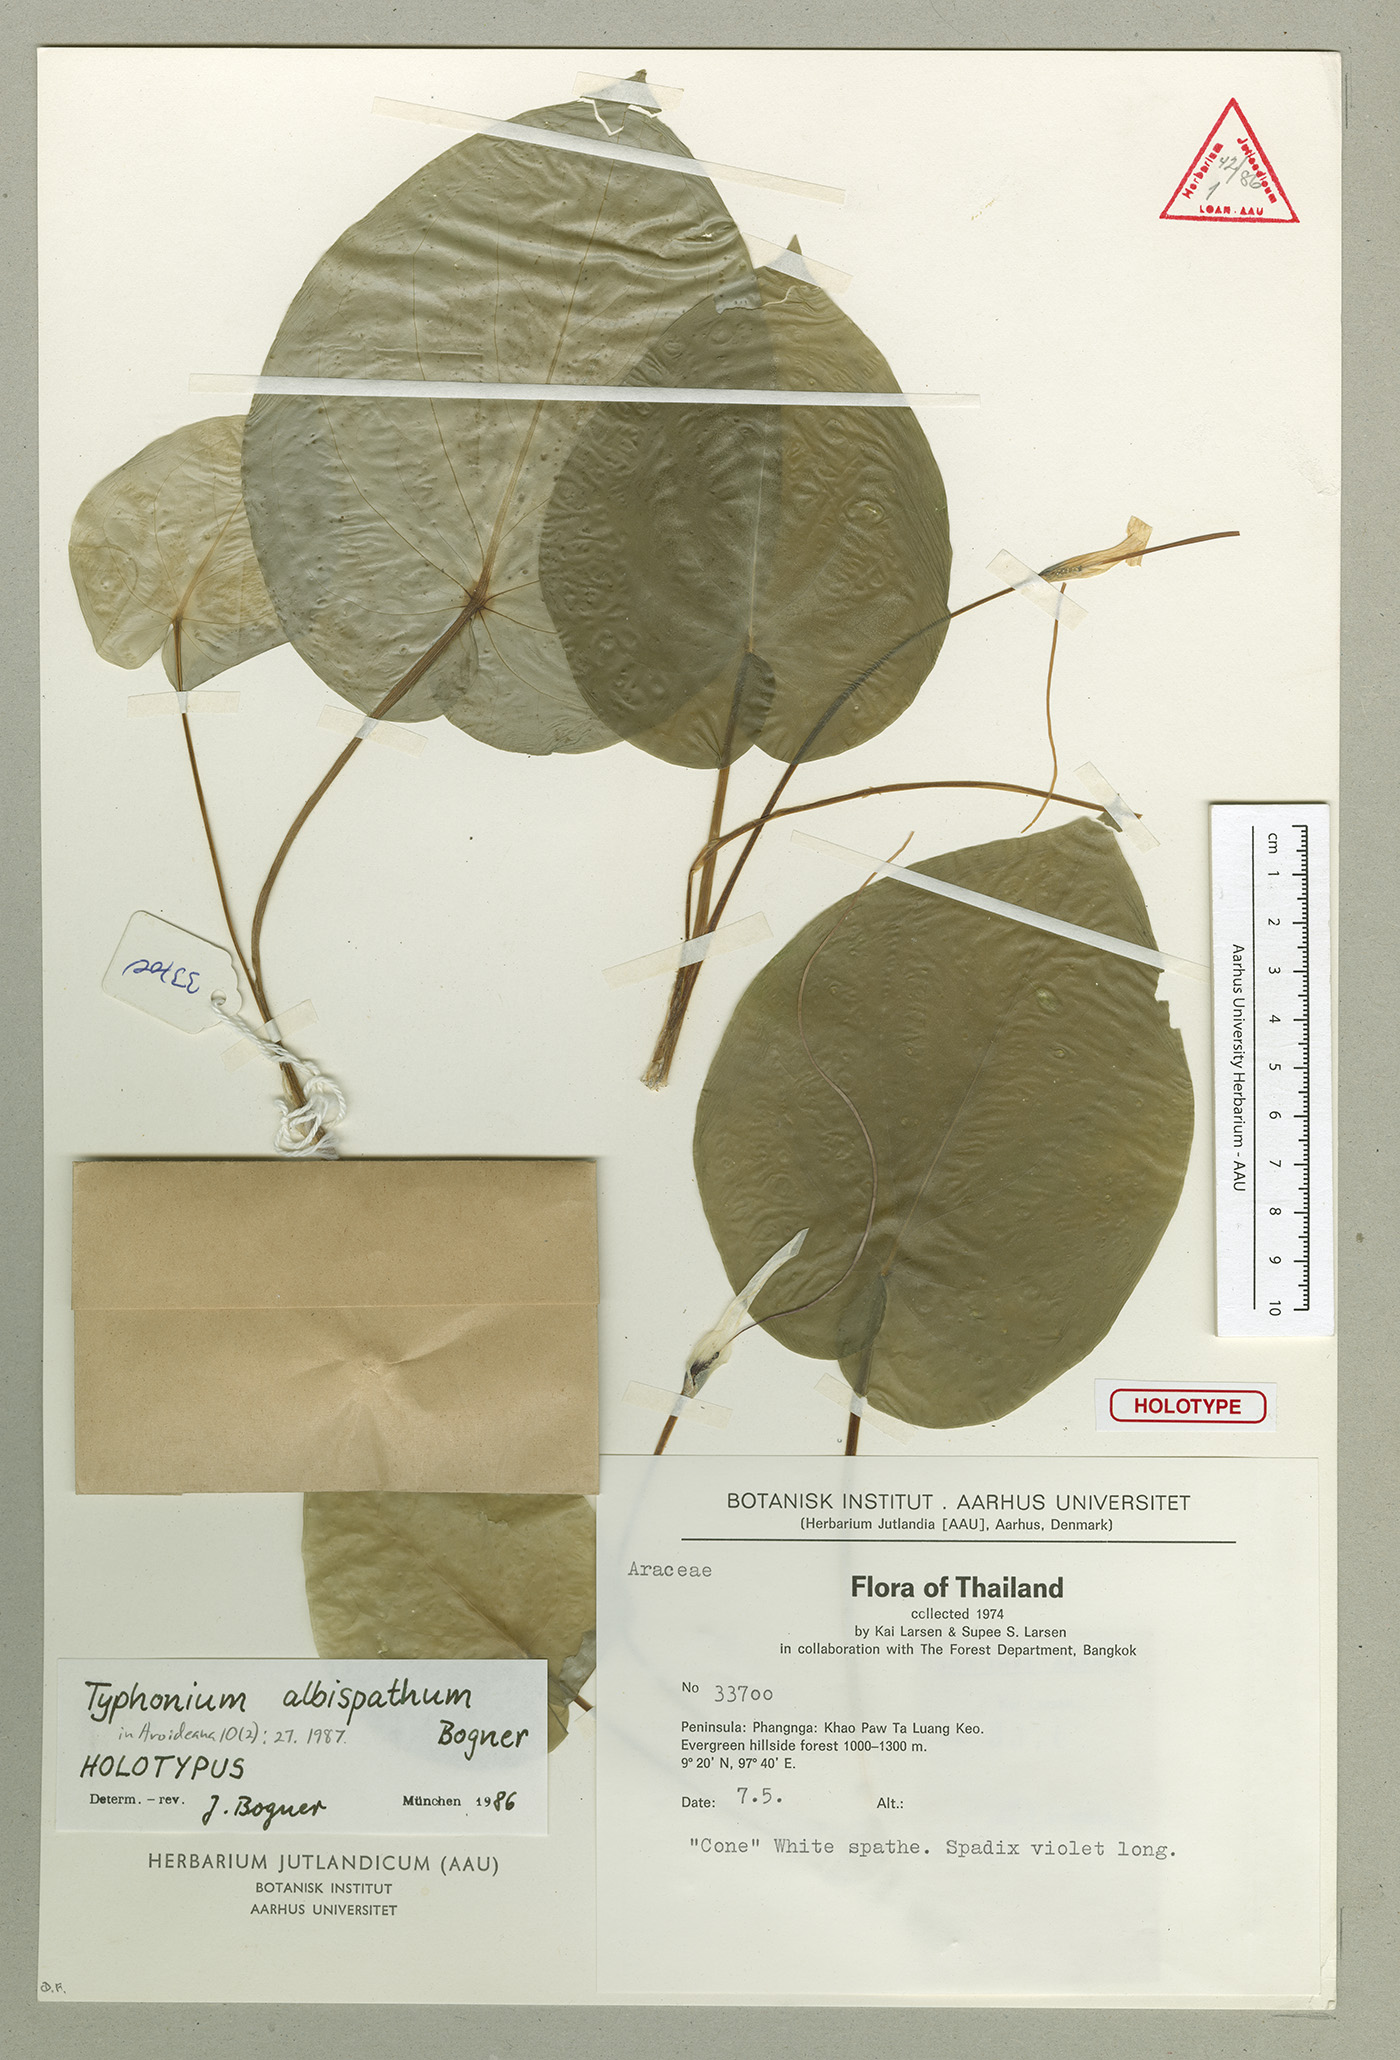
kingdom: Plantae
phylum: Tracheophyta
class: Liliopsida
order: Alismatales
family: Araceae
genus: Typhonium
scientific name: Typhonium albispathum
